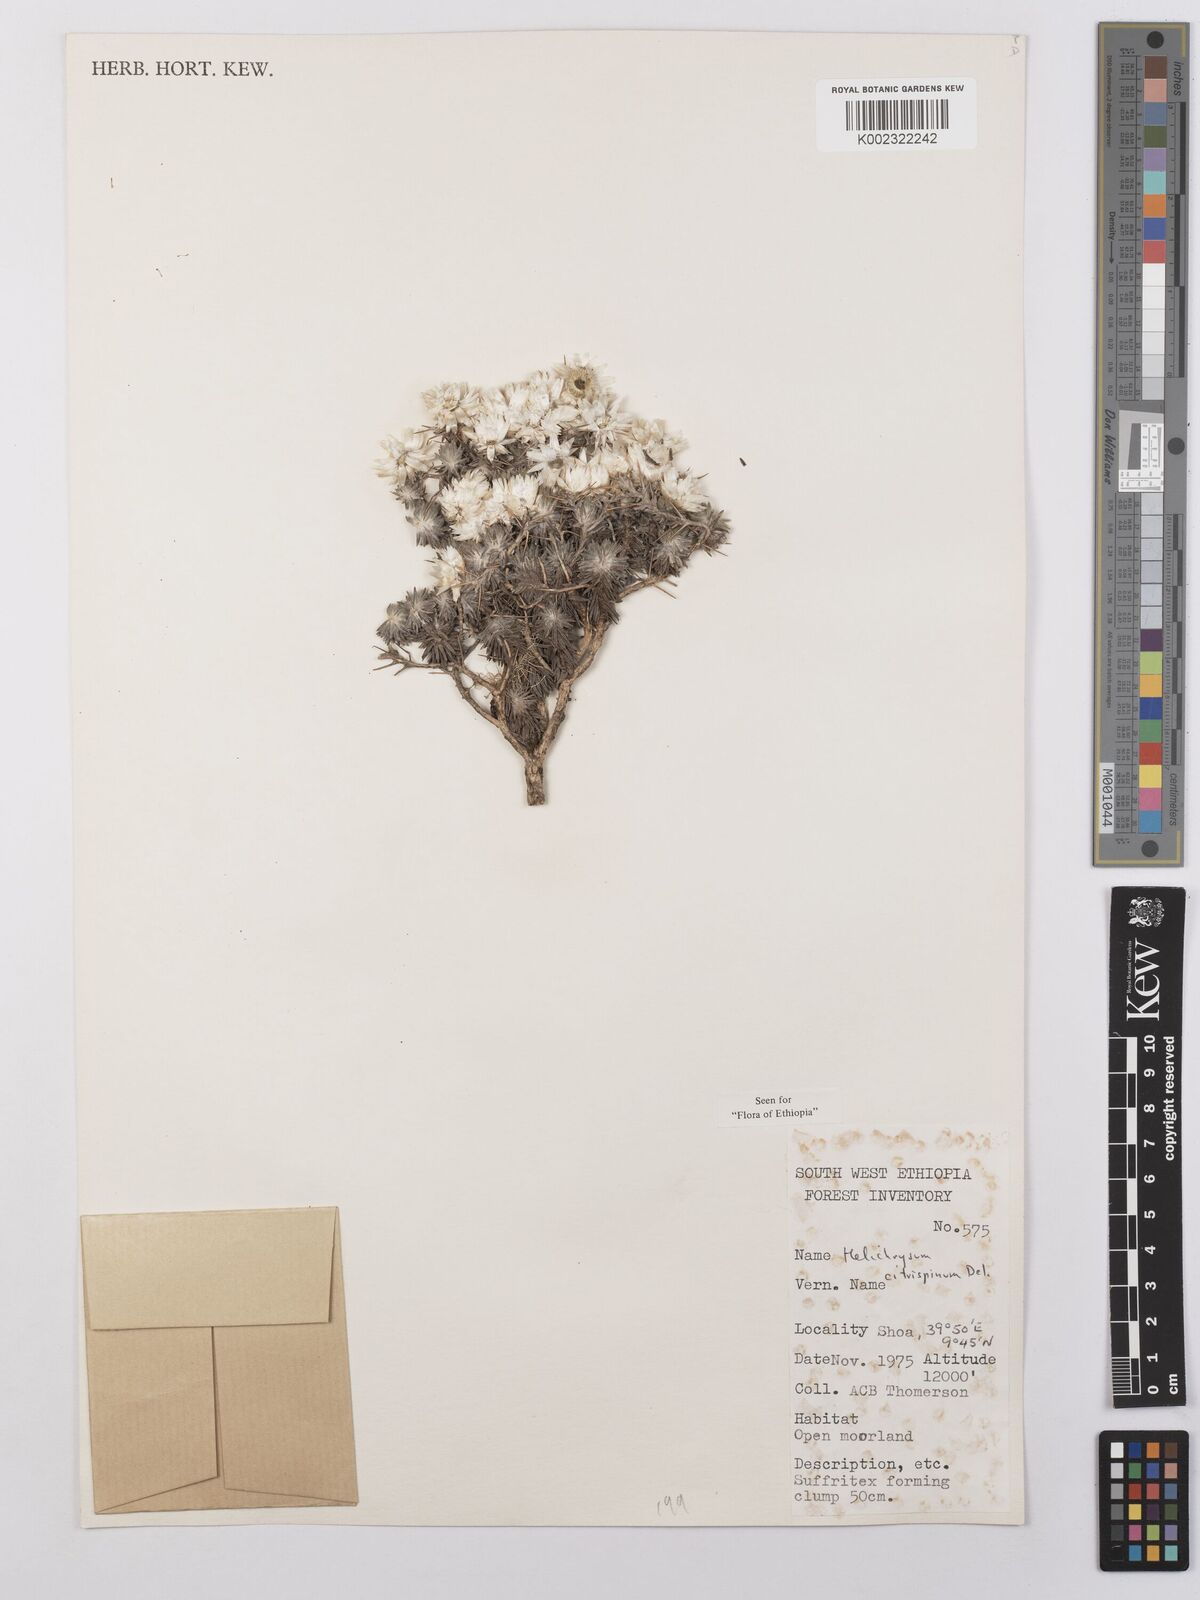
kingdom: Plantae
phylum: Tracheophyta
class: Magnoliopsida
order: Asterales
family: Asteraceae
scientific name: Asteraceae
